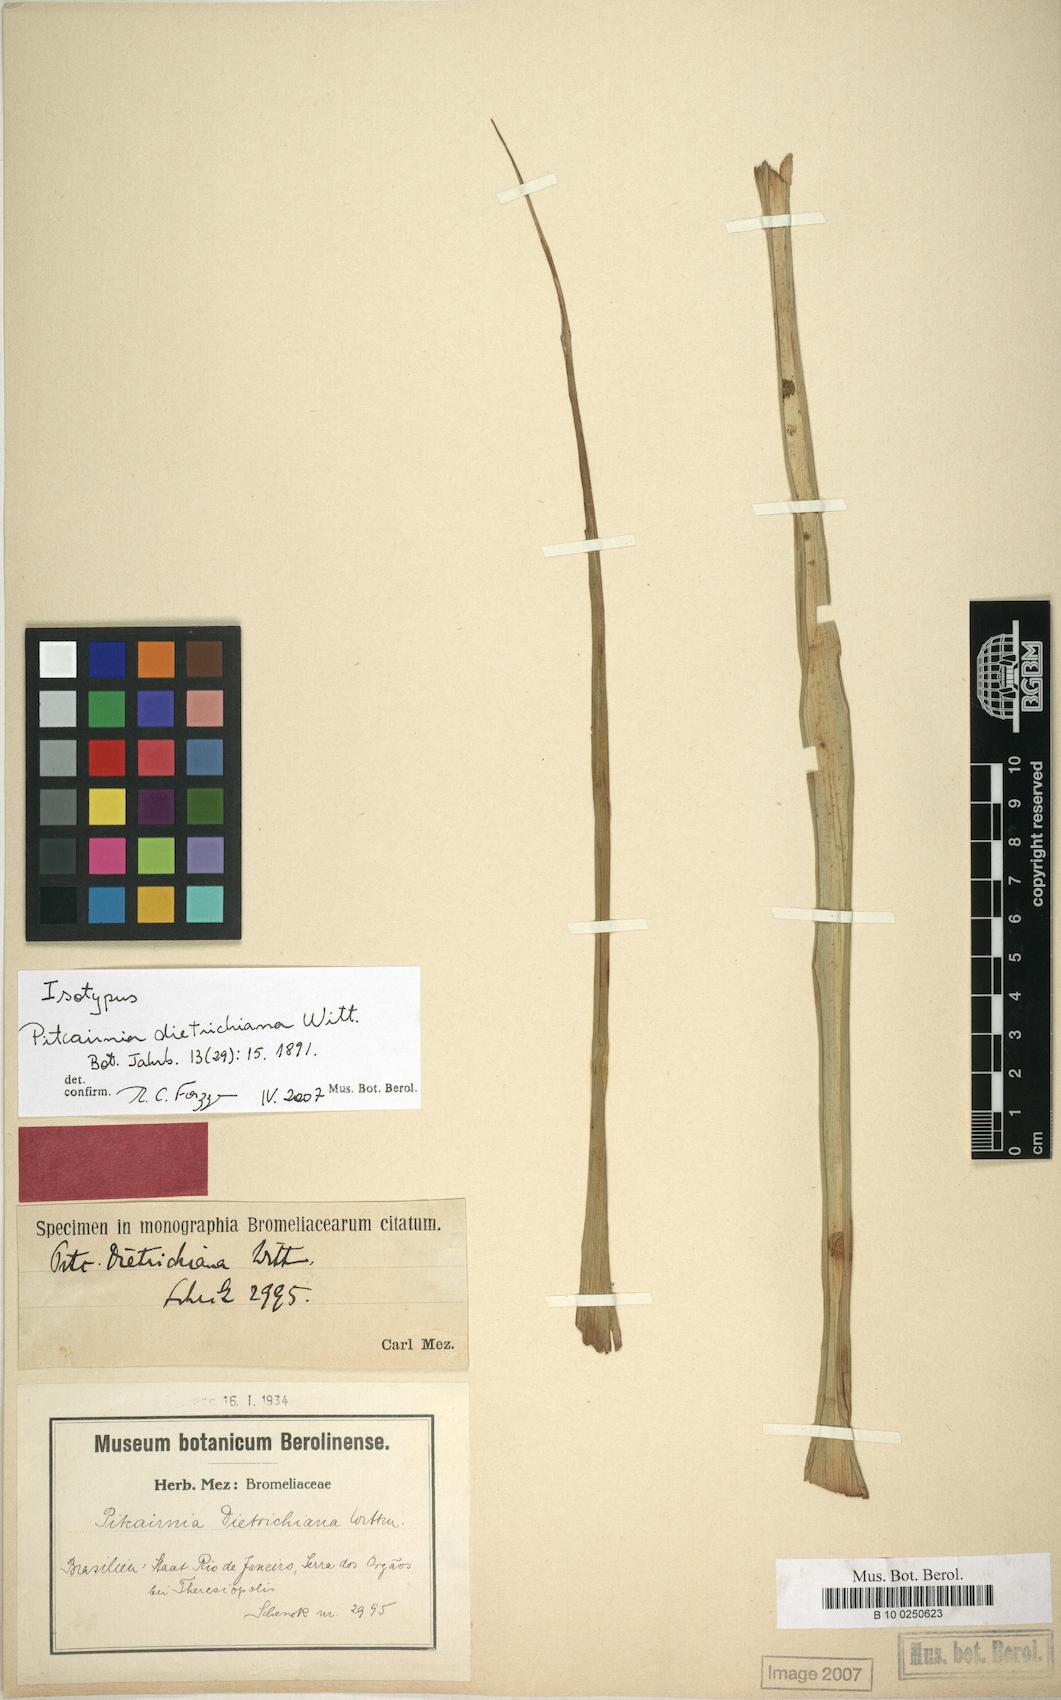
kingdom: Plantae
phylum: Tracheophyta
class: Liliopsida
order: Poales
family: Bromeliaceae
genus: Pitcairnia
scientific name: Pitcairnia flammea
